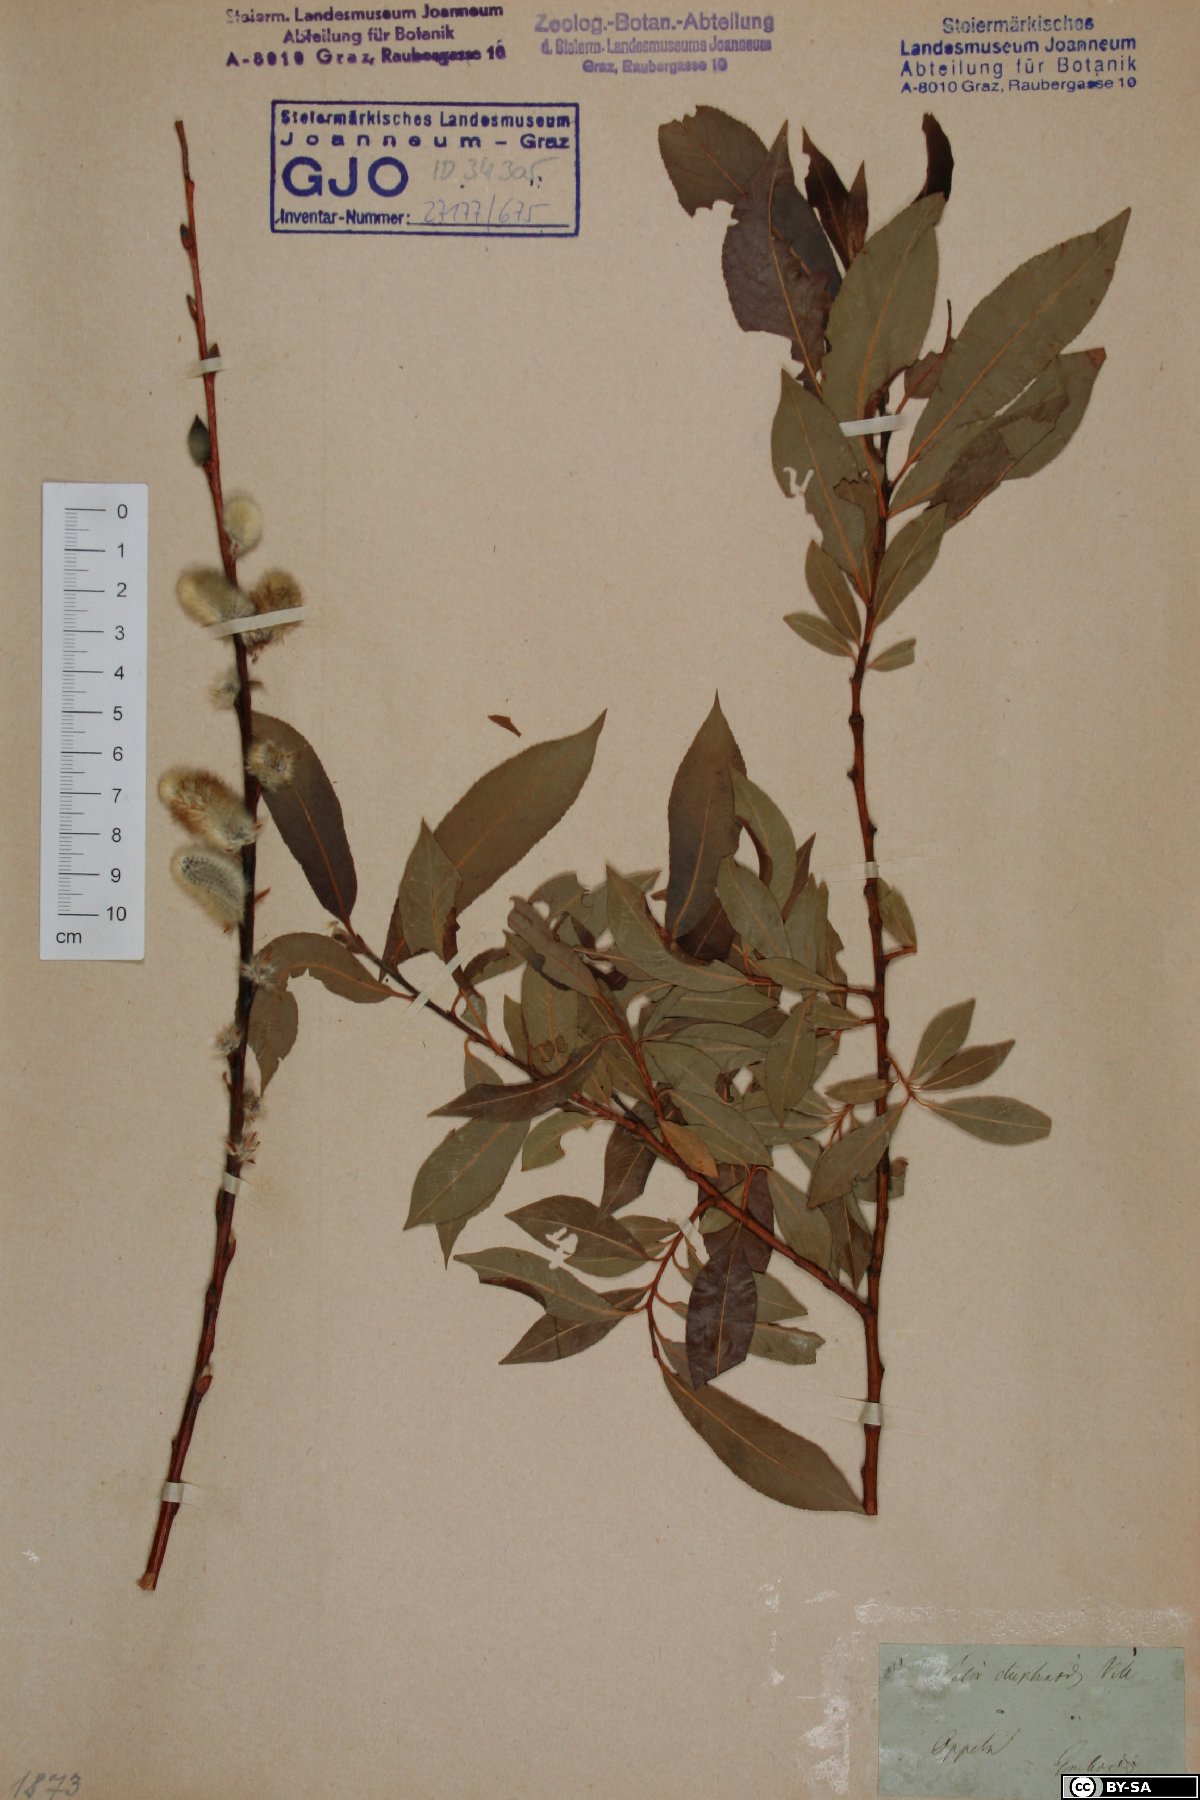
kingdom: Plantae
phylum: Tracheophyta
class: Magnoliopsida
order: Malpighiales
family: Salicaceae
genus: Salix
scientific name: Salix daphnoides
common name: European violet-willow
